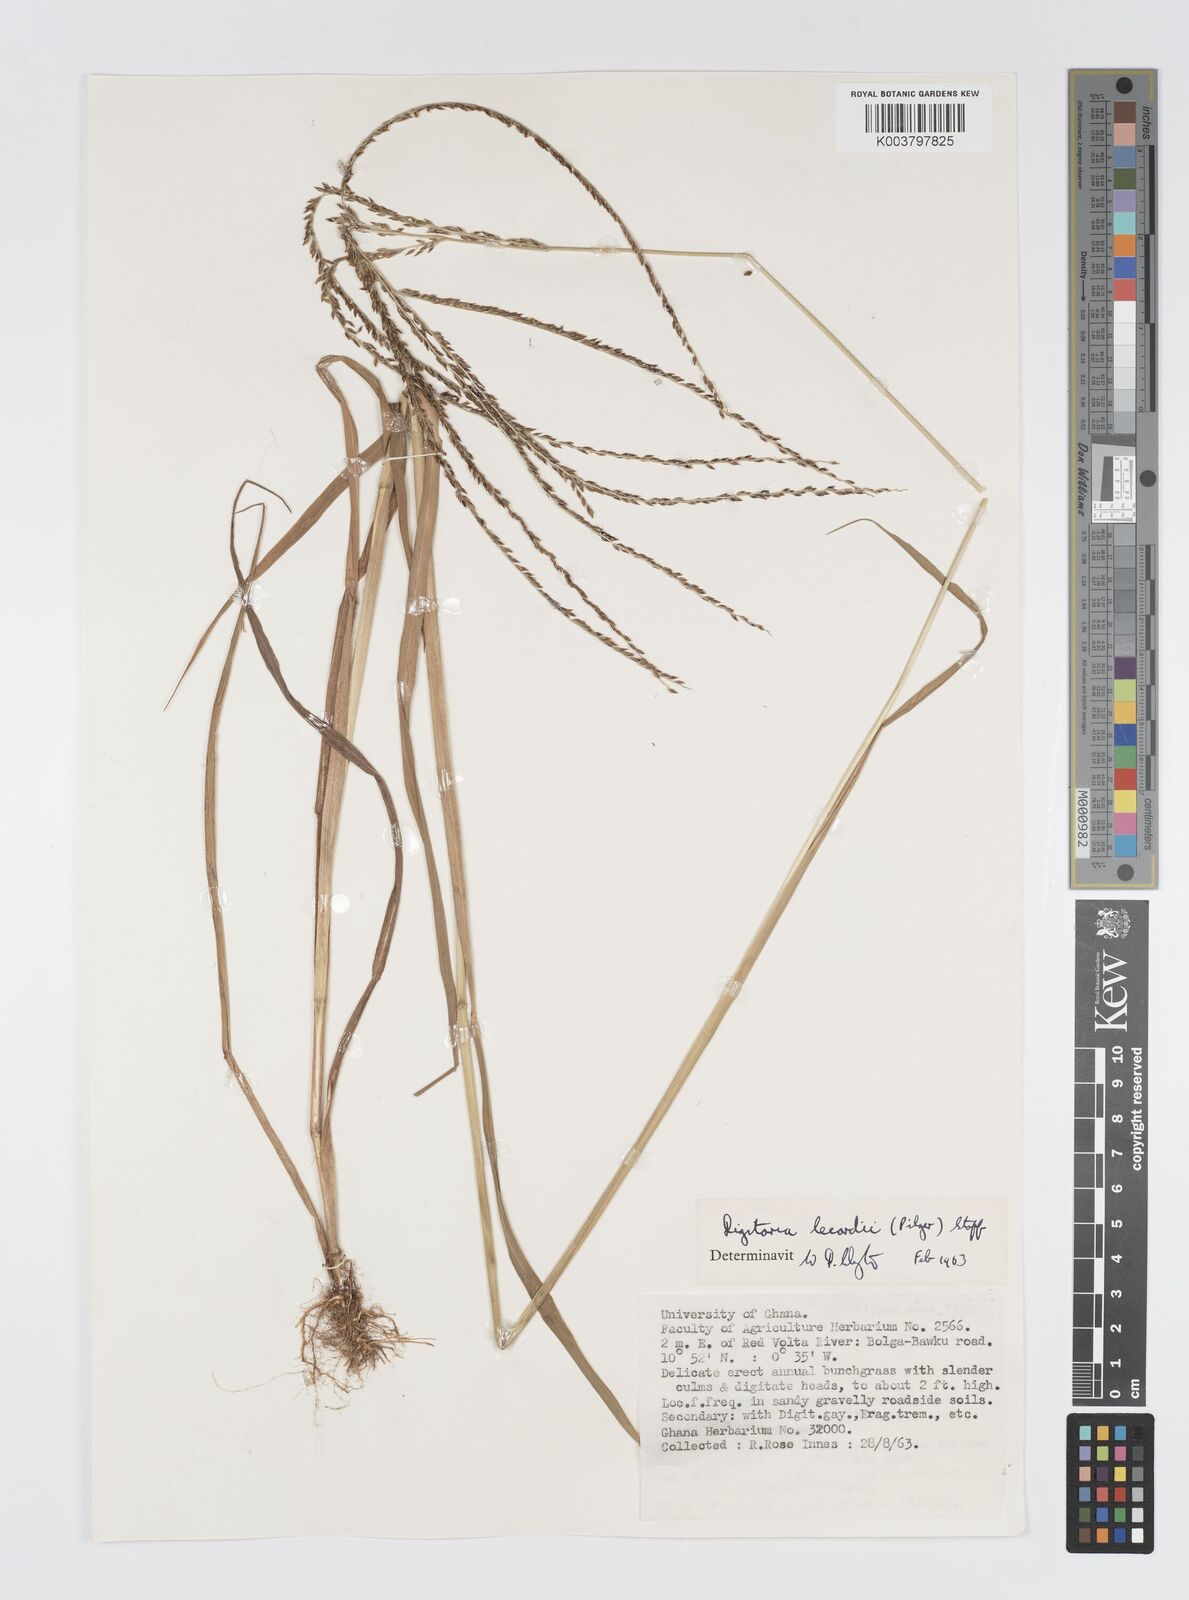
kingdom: Plantae
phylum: Tracheophyta
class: Liliopsida
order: Poales
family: Poaceae
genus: Digitaria
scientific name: Digitaria
